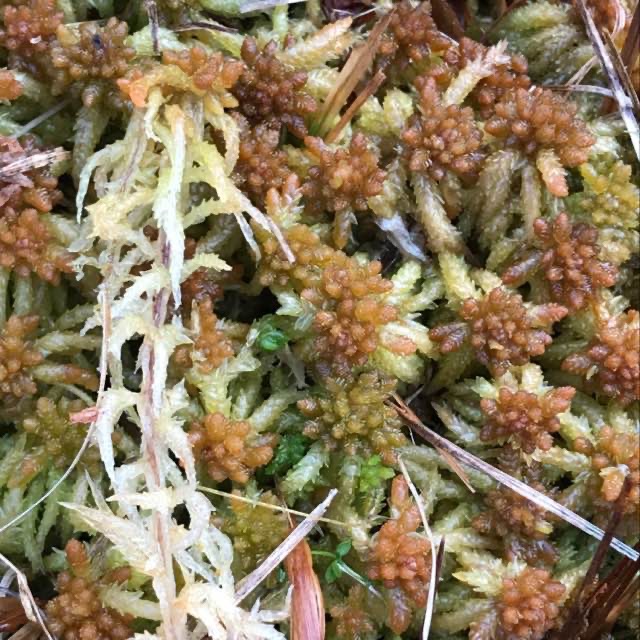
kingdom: Plantae
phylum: Bryophyta
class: Sphagnopsida
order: Sphagnales
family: Sphagnaceae
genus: Sphagnum
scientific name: Sphagnum palustre
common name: Almindelig tørvemos
